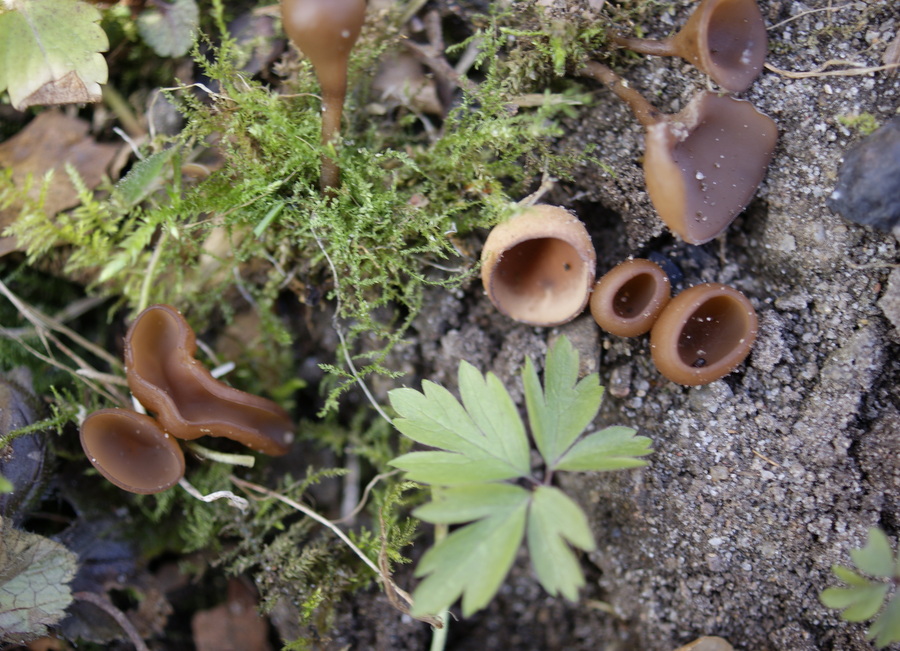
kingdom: Fungi
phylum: Ascomycota
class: Leotiomycetes
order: Helotiales
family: Sclerotiniaceae
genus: Dumontinia
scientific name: Dumontinia tuberosa
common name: anemone-knoldskive
